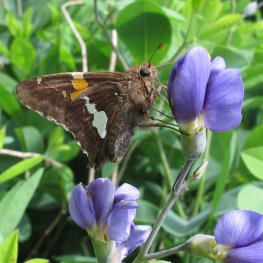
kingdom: Animalia
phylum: Arthropoda
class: Insecta
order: Lepidoptera
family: Hesperiidae
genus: Epargyreus
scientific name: Epargyreus clarus
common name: Silver-spotted Skipper
